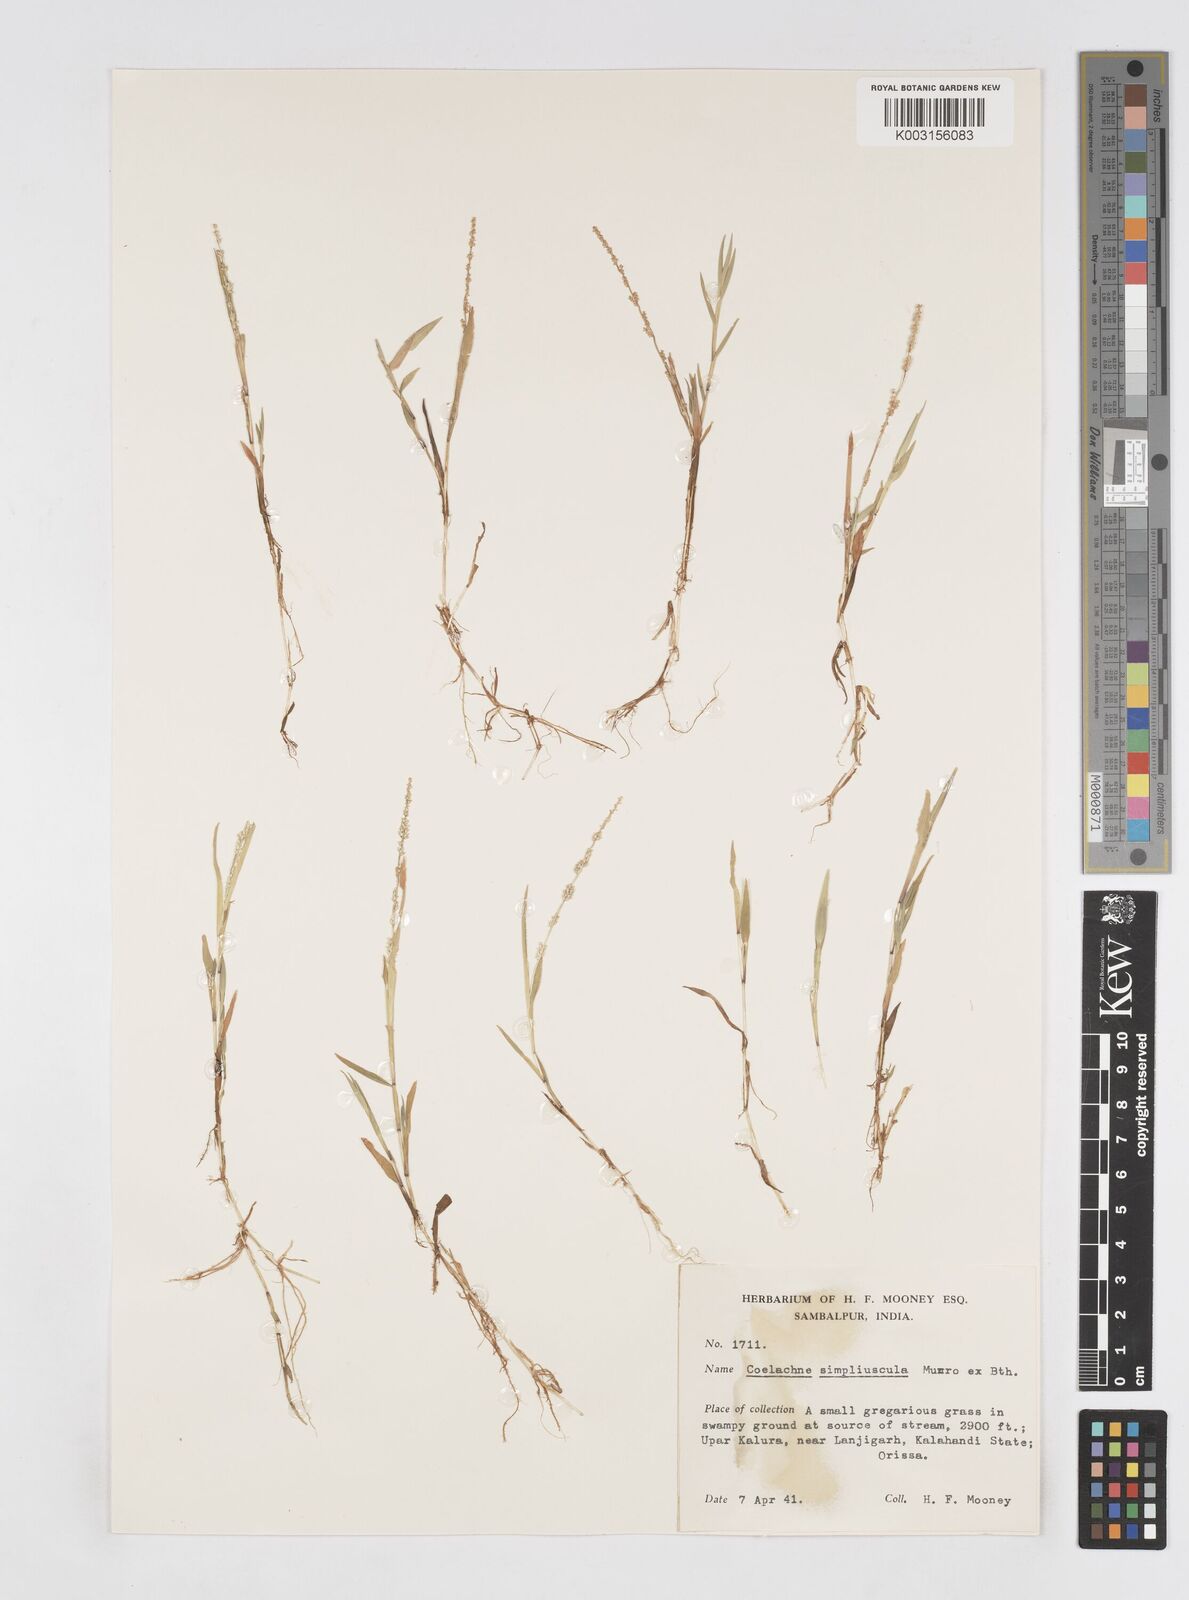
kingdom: Plantae
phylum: Tracheophyta
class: Liliopsida
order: Poales
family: Poaceae
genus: Coelachne
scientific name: Coelachne simpliciuscula
